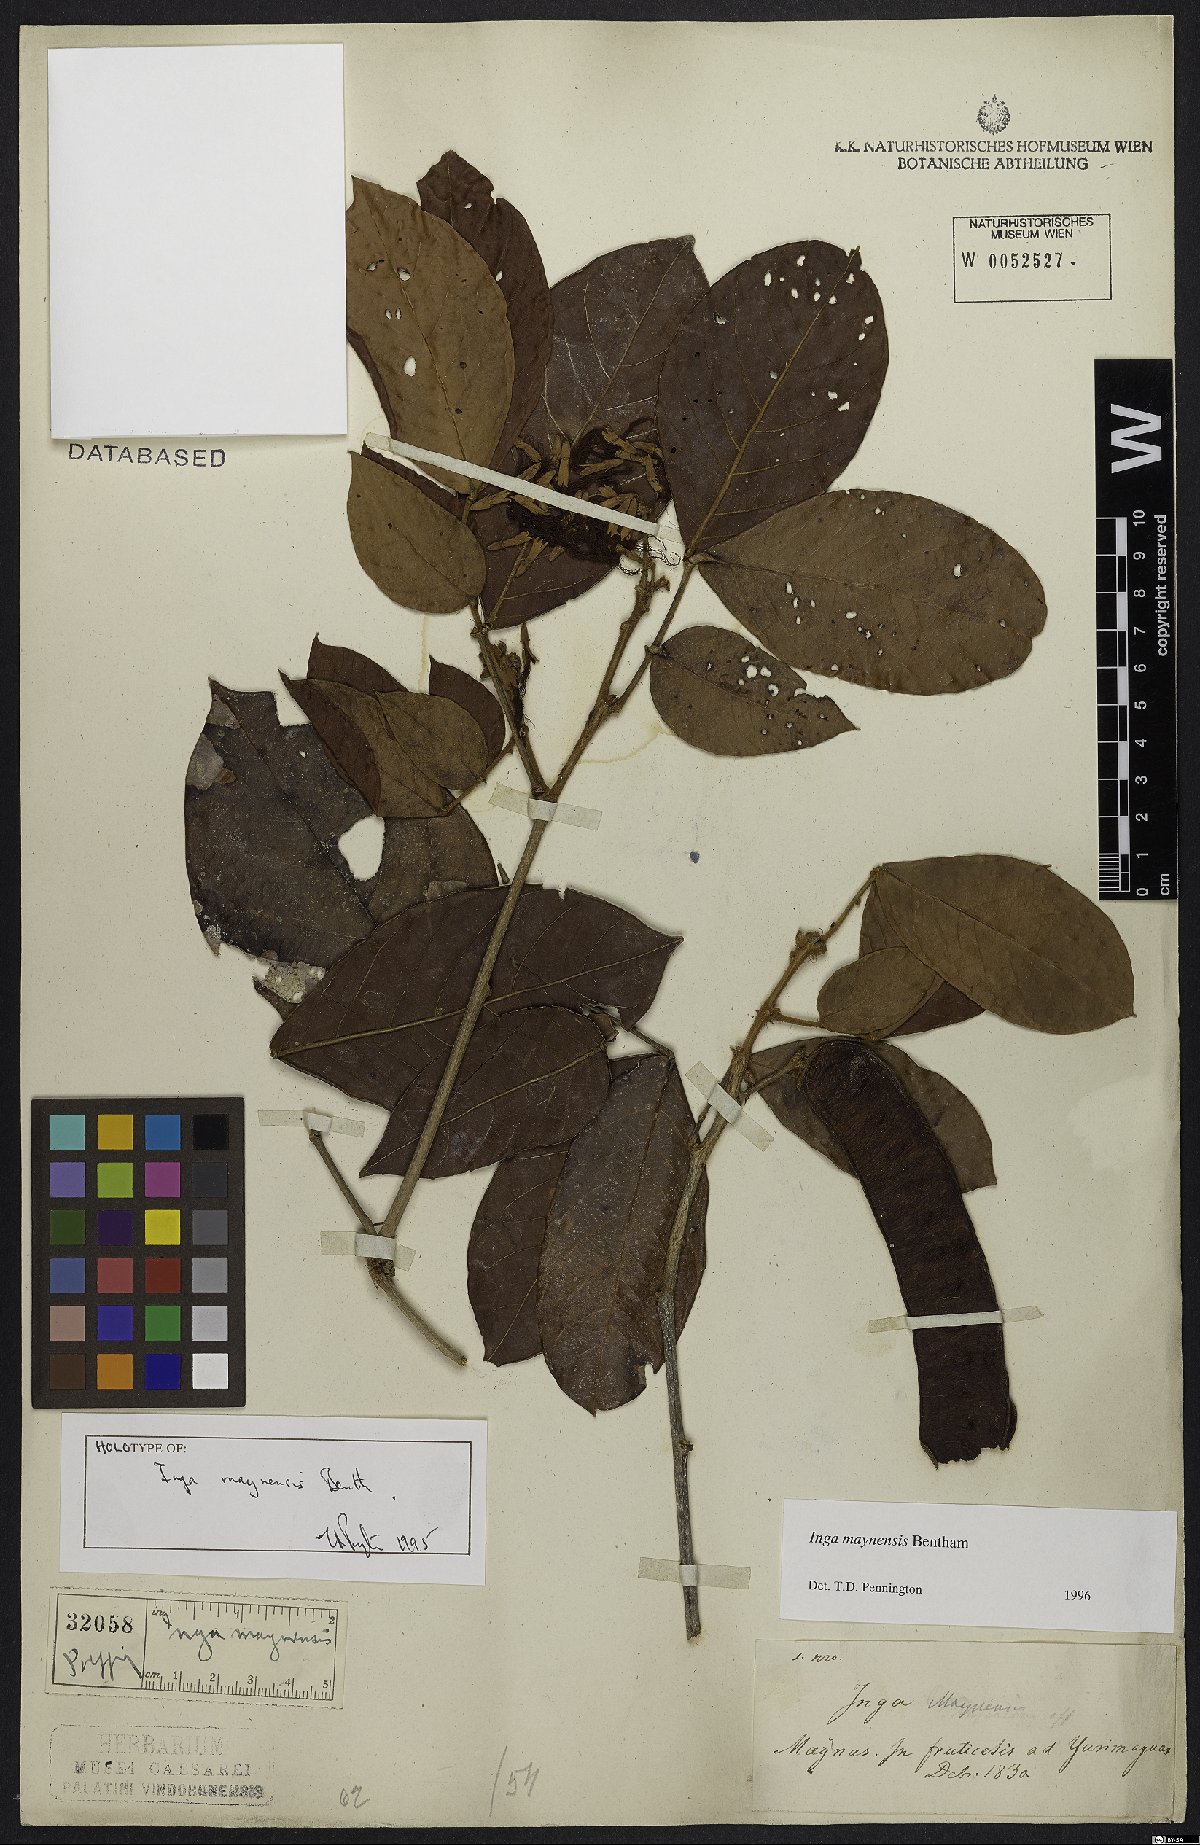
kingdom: Plantae
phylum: Tracheophyta
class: Magnoliopsida
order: Fabales
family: Fabaceae
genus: Inga
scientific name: Inga maynensis
